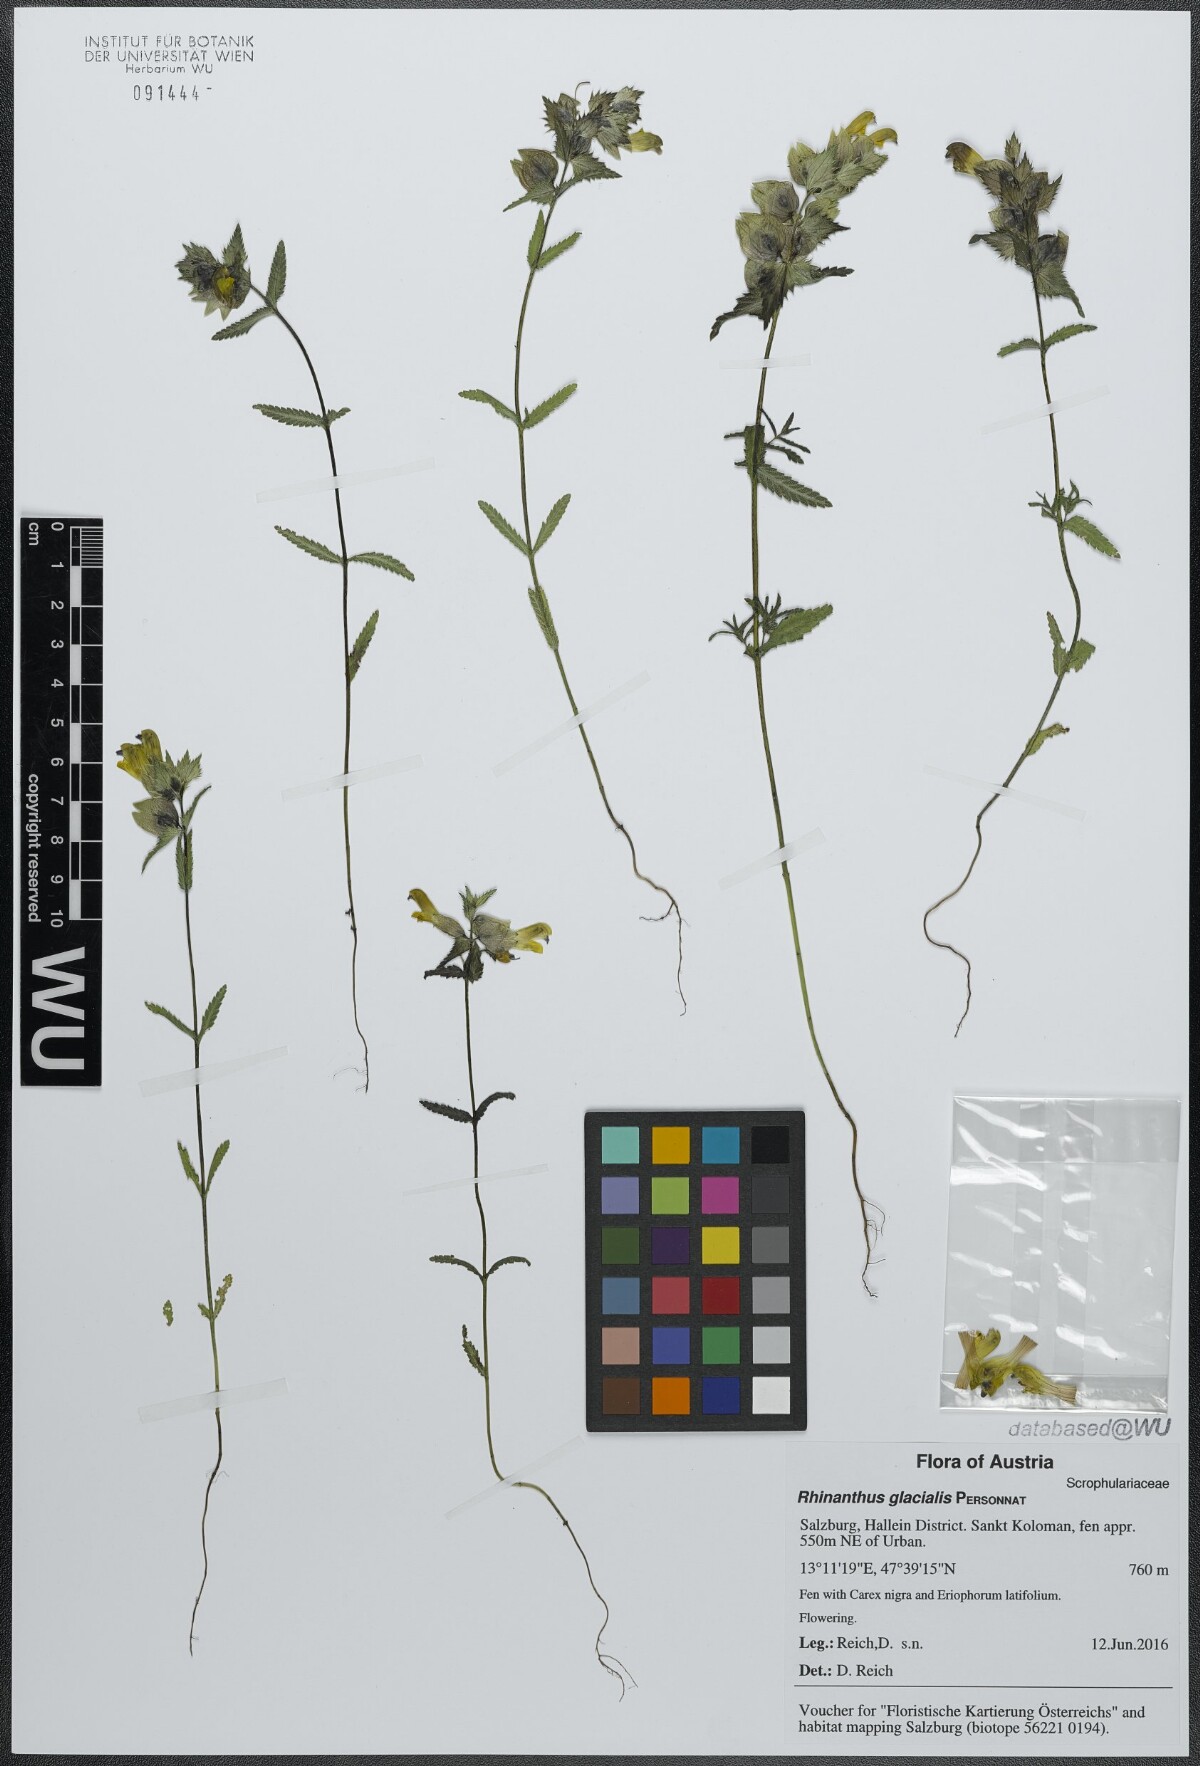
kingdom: Plantae
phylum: Tracheophyta
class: Magnoliopsida
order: Lamiales
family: Orobanchaceae
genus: Rhinanthus
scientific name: Rhinanthus glacialis
